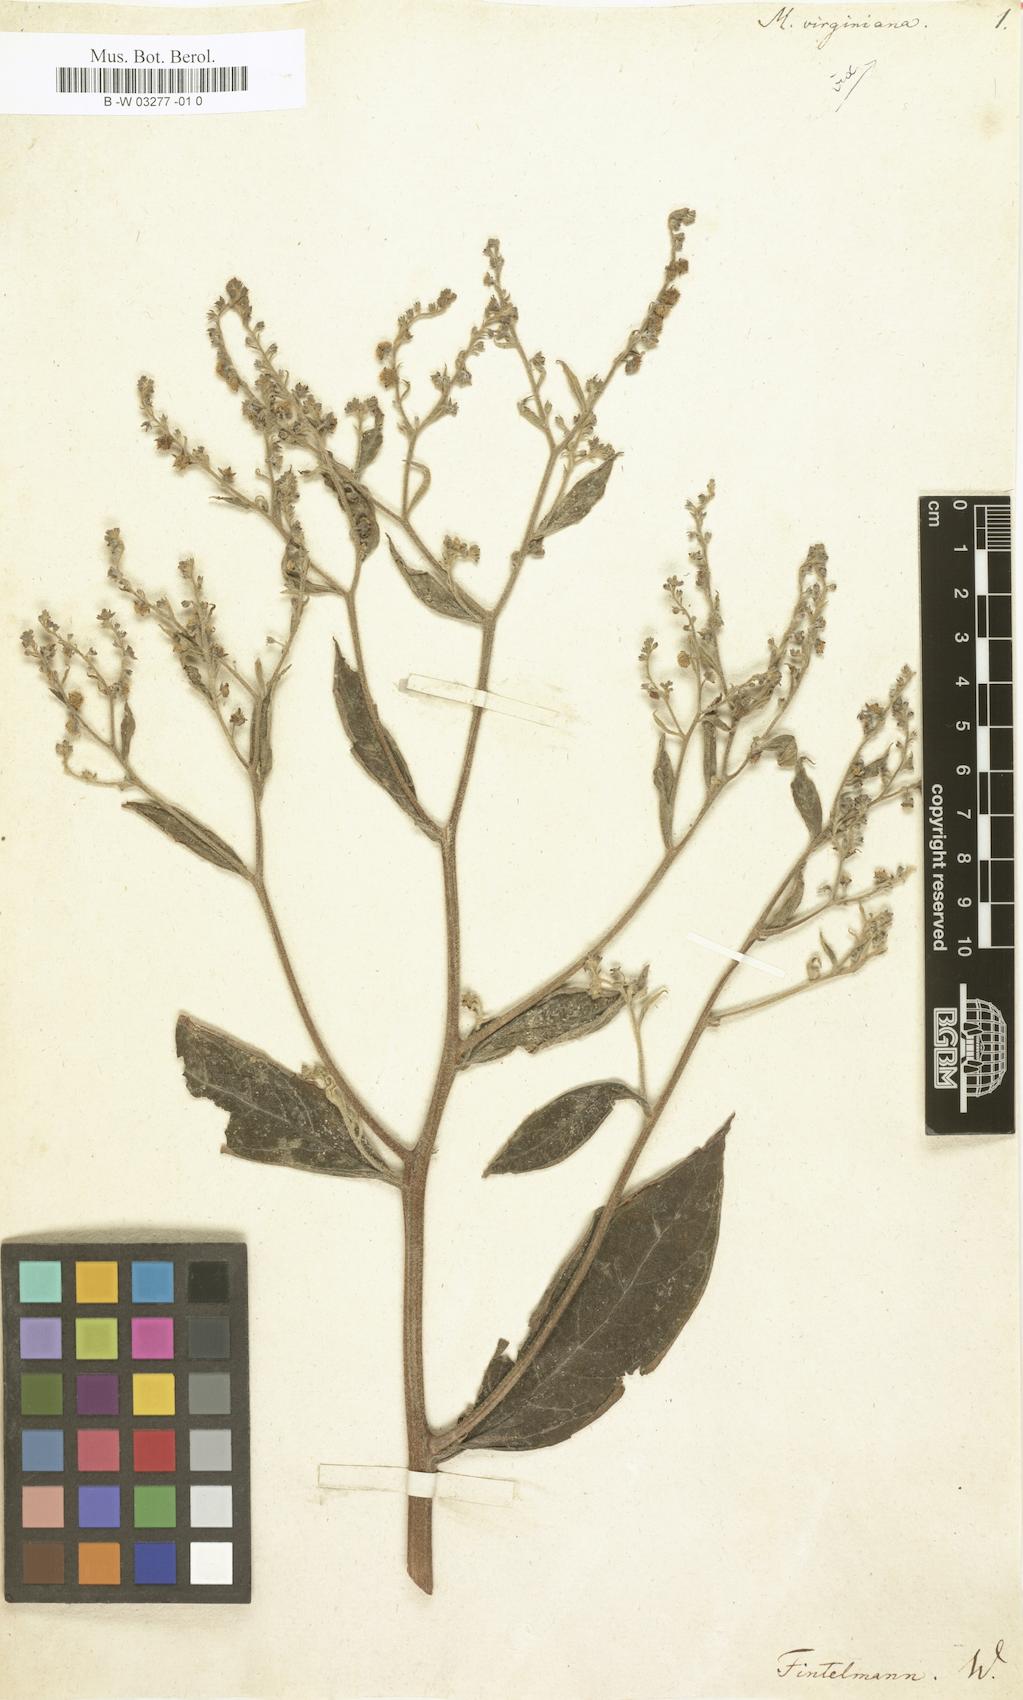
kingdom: Plantae
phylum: Tracheophyta
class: Magnoliopsida
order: Boraginales
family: Boraginaceae
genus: Hackelia
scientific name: Hackelia virginiana
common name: Beggar's-lice
